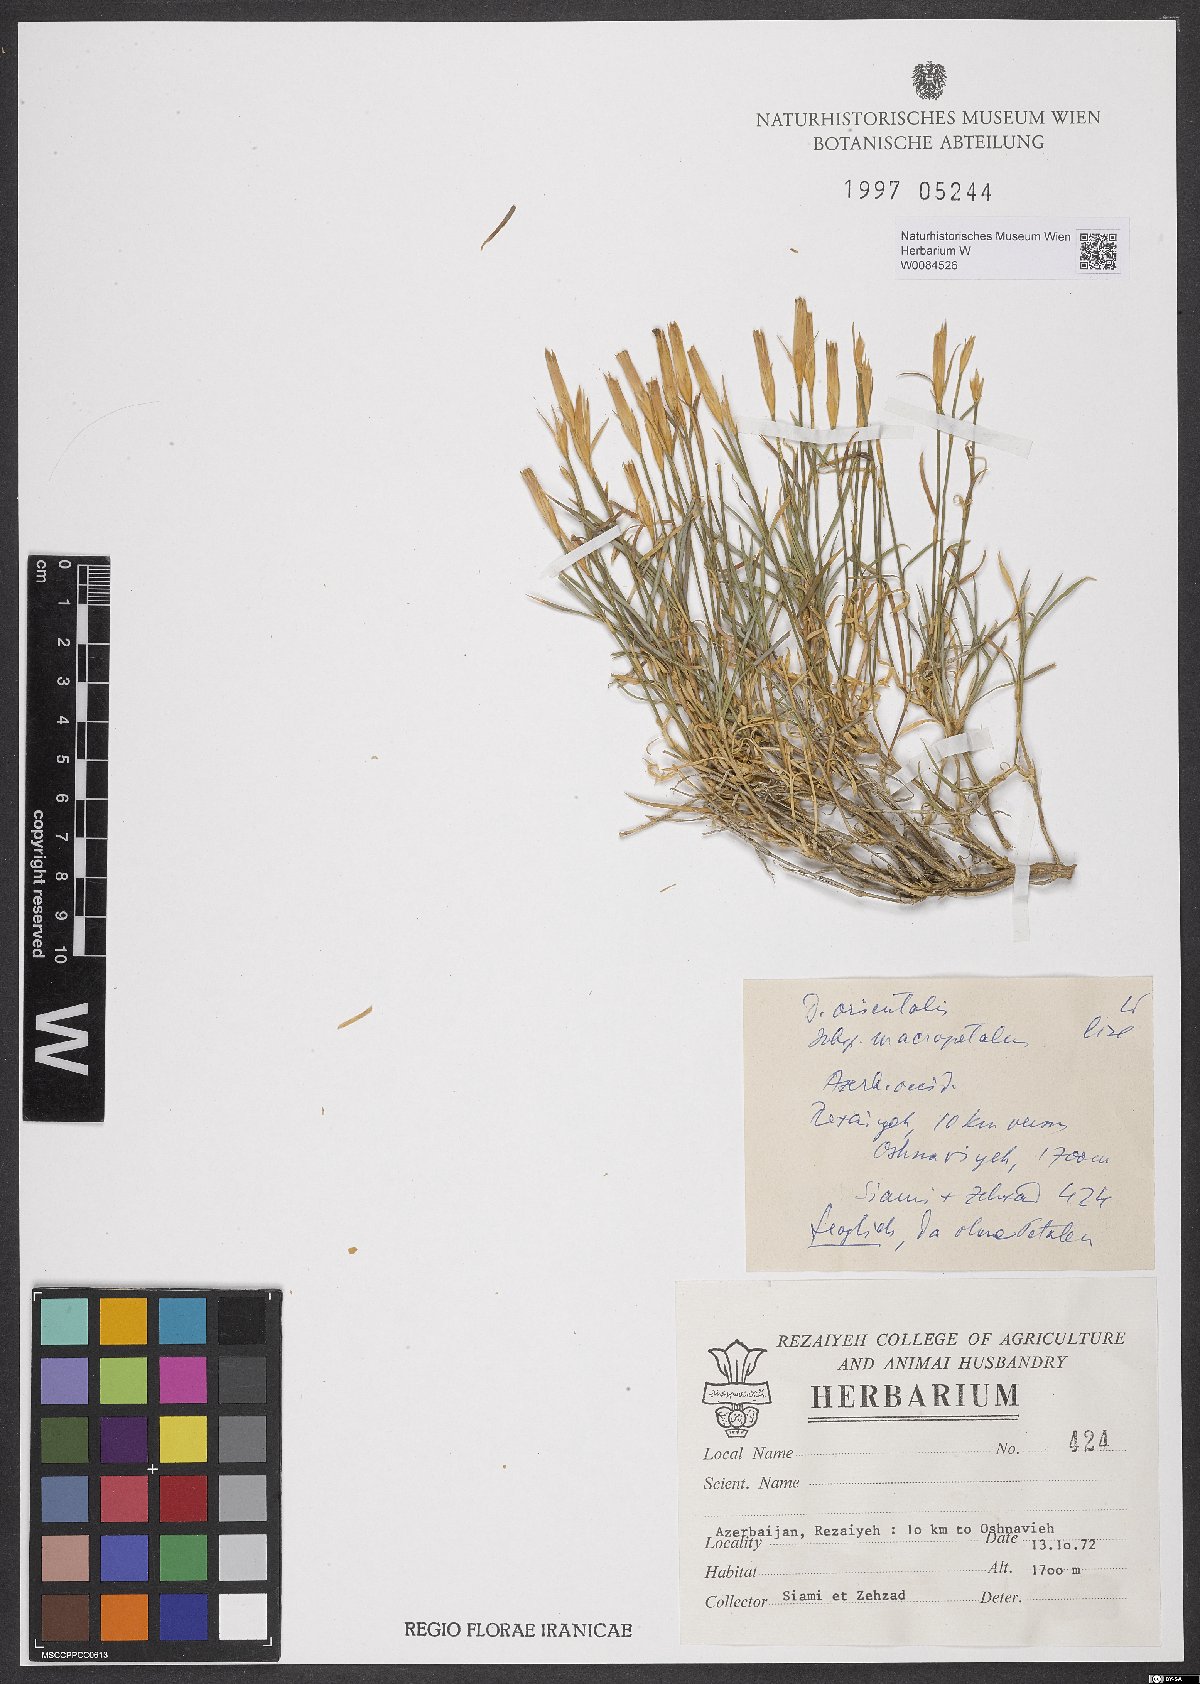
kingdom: Plantae
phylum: Tracheophyta
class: Magnoliopsida
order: Caryophyllales
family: Caryophyllaceae
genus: Dianthus
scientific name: Dianthus orientalis
